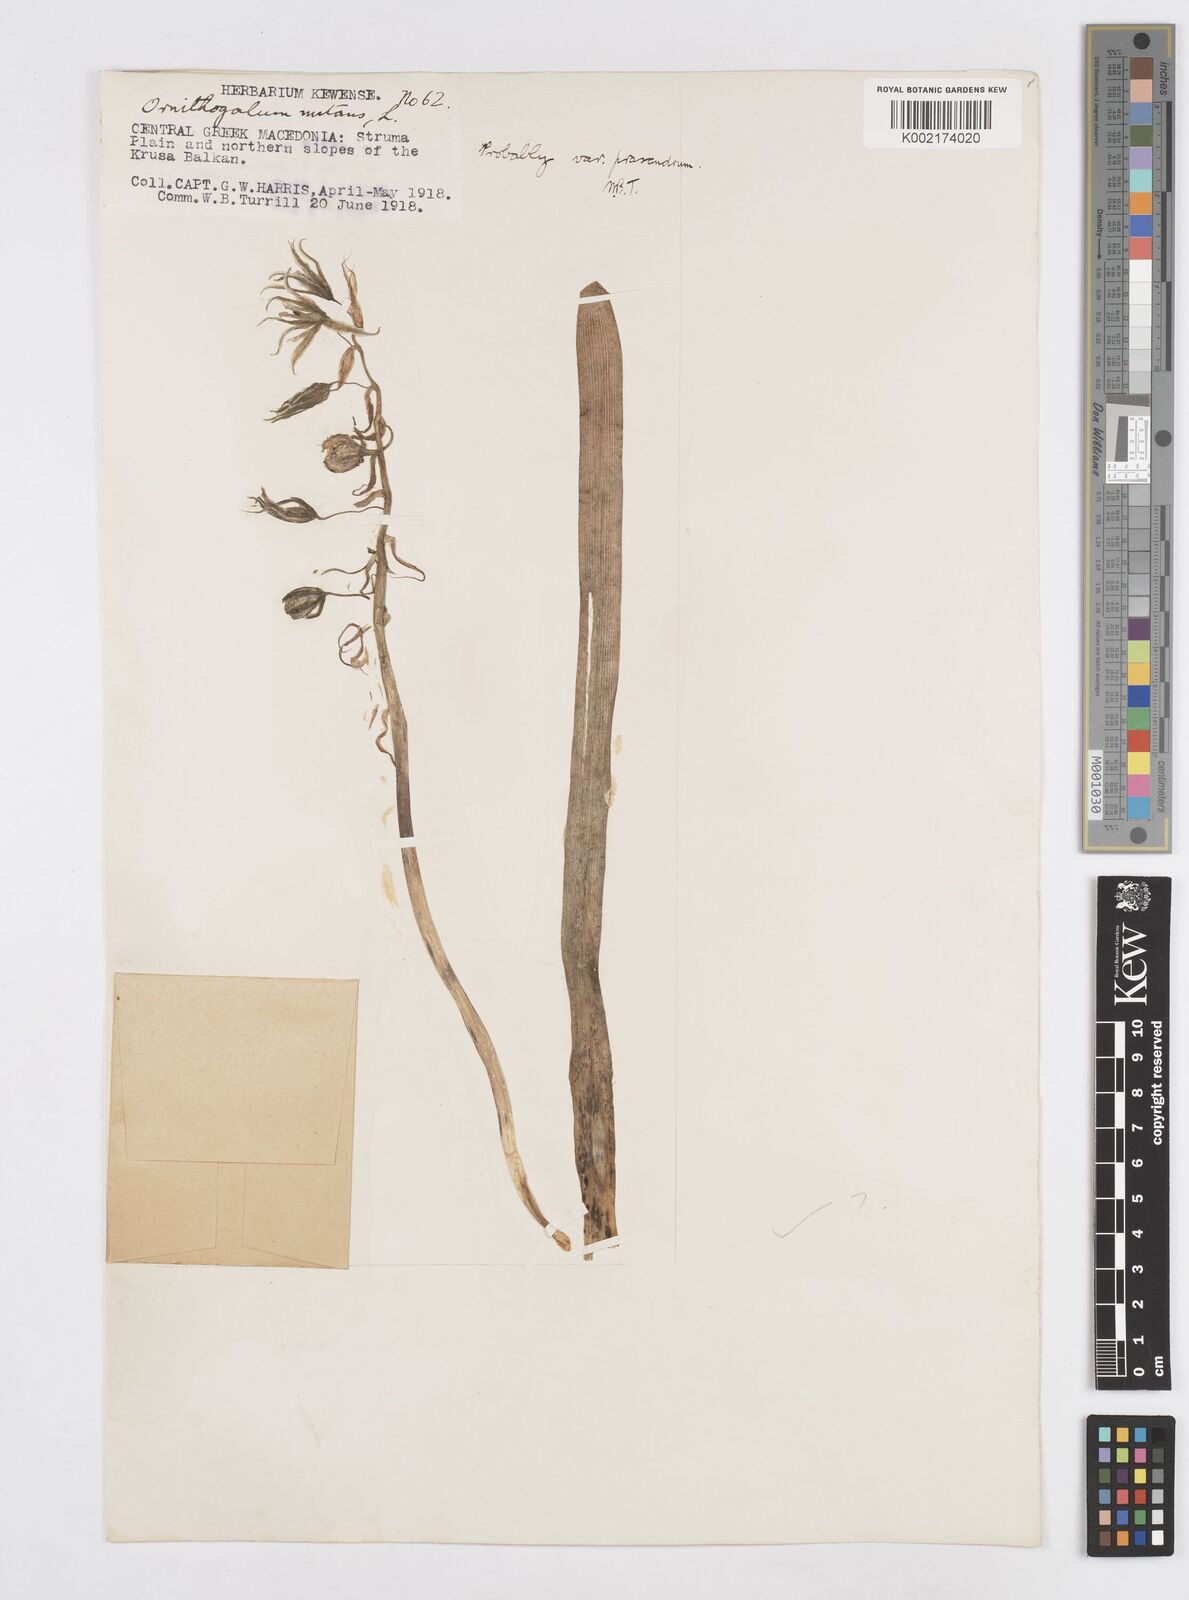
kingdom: Plantae
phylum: Tracheophyta
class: Liliopsida
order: Asparagales
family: Asparagaceae
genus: Ornithogalum
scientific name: Ornithogalum nutans
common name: Drooping star-of-bethlehem
